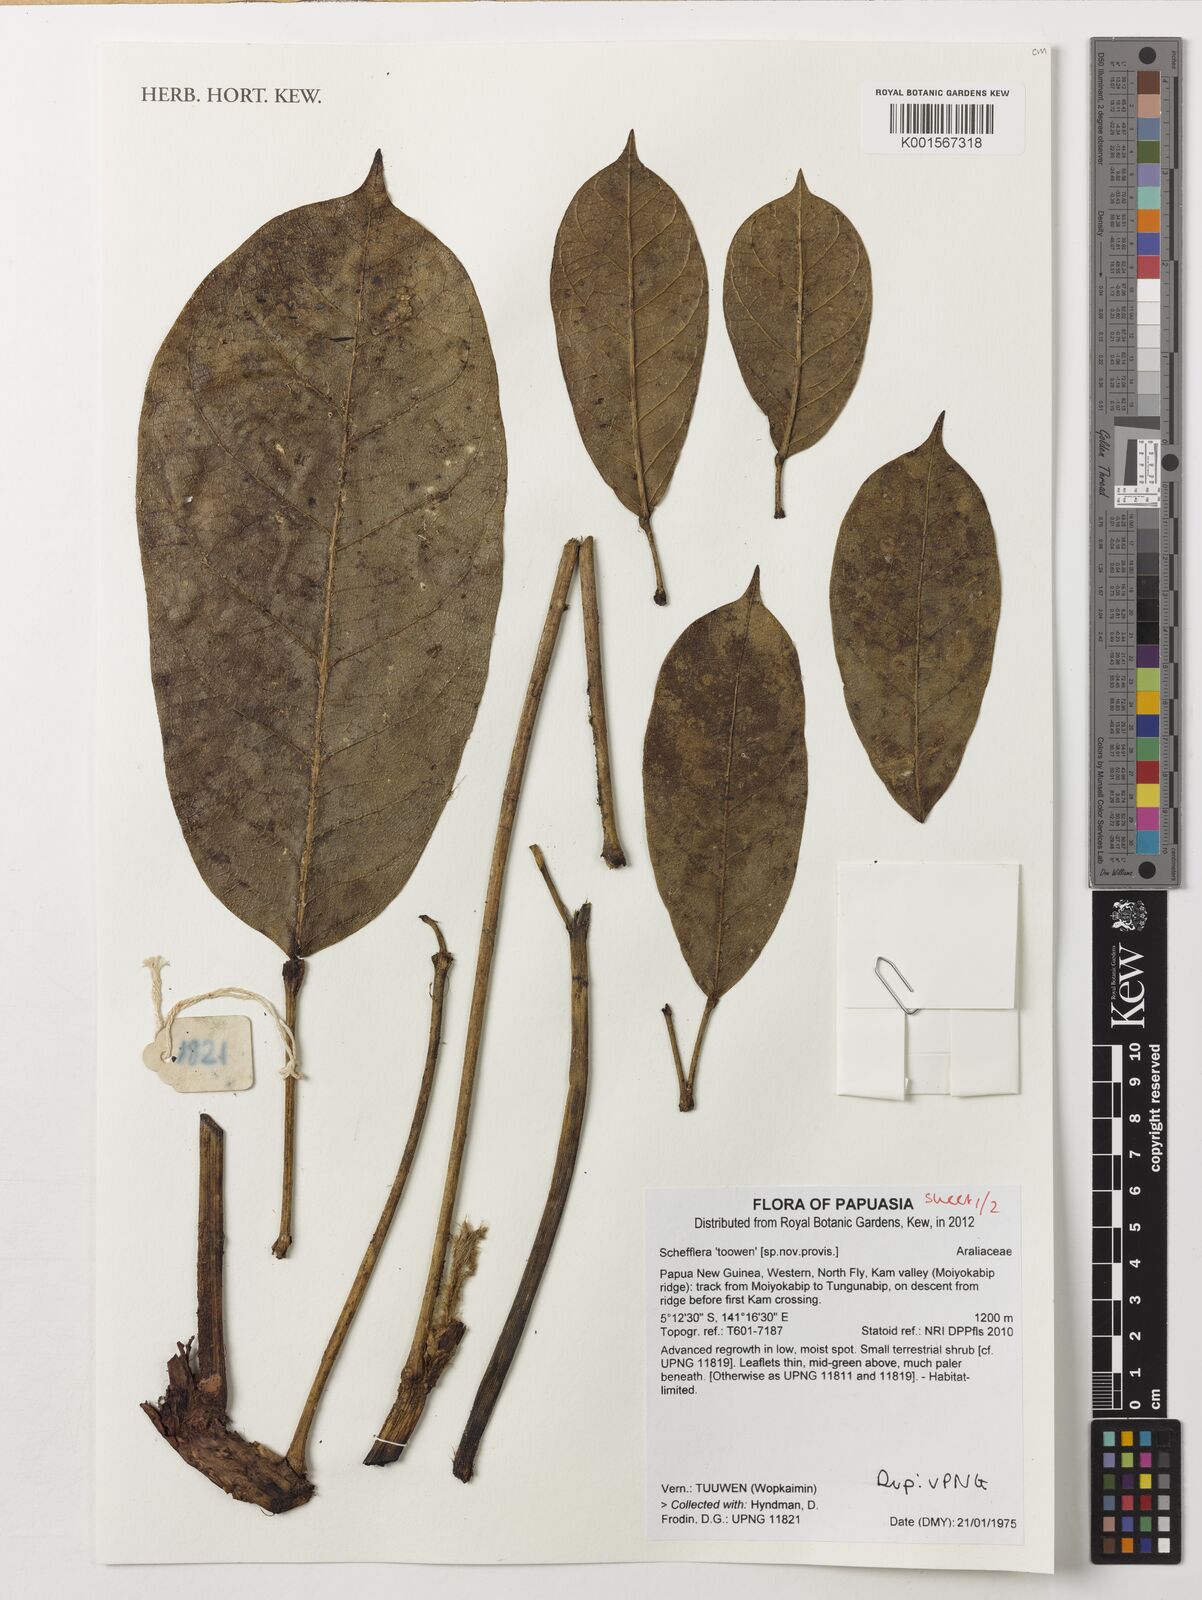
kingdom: Plantae
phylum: Tracheophyta
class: Magnoliopsida
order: Apiales
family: Araliaceae
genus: Schefflera
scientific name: Schefflera
